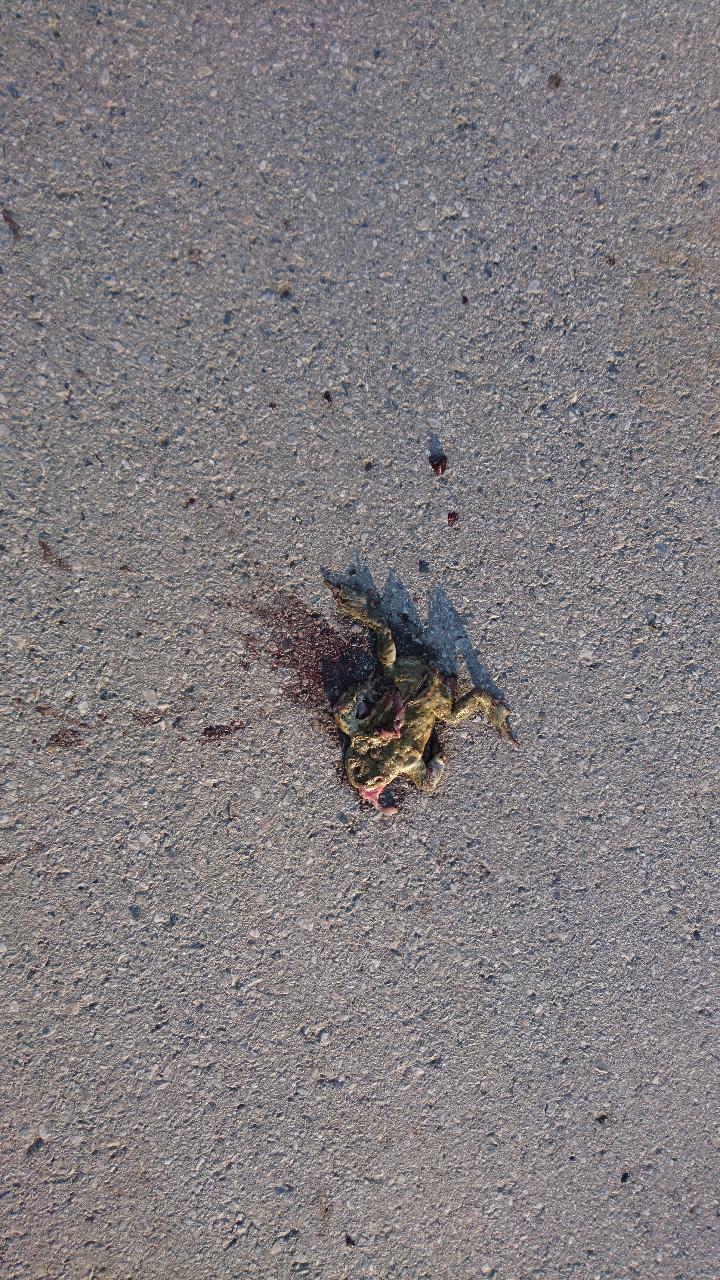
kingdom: Animalia
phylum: Chordata
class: Amphibia
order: Anura
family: Bufonidae
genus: Bufo
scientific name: Bufo bufo
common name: Common toad
